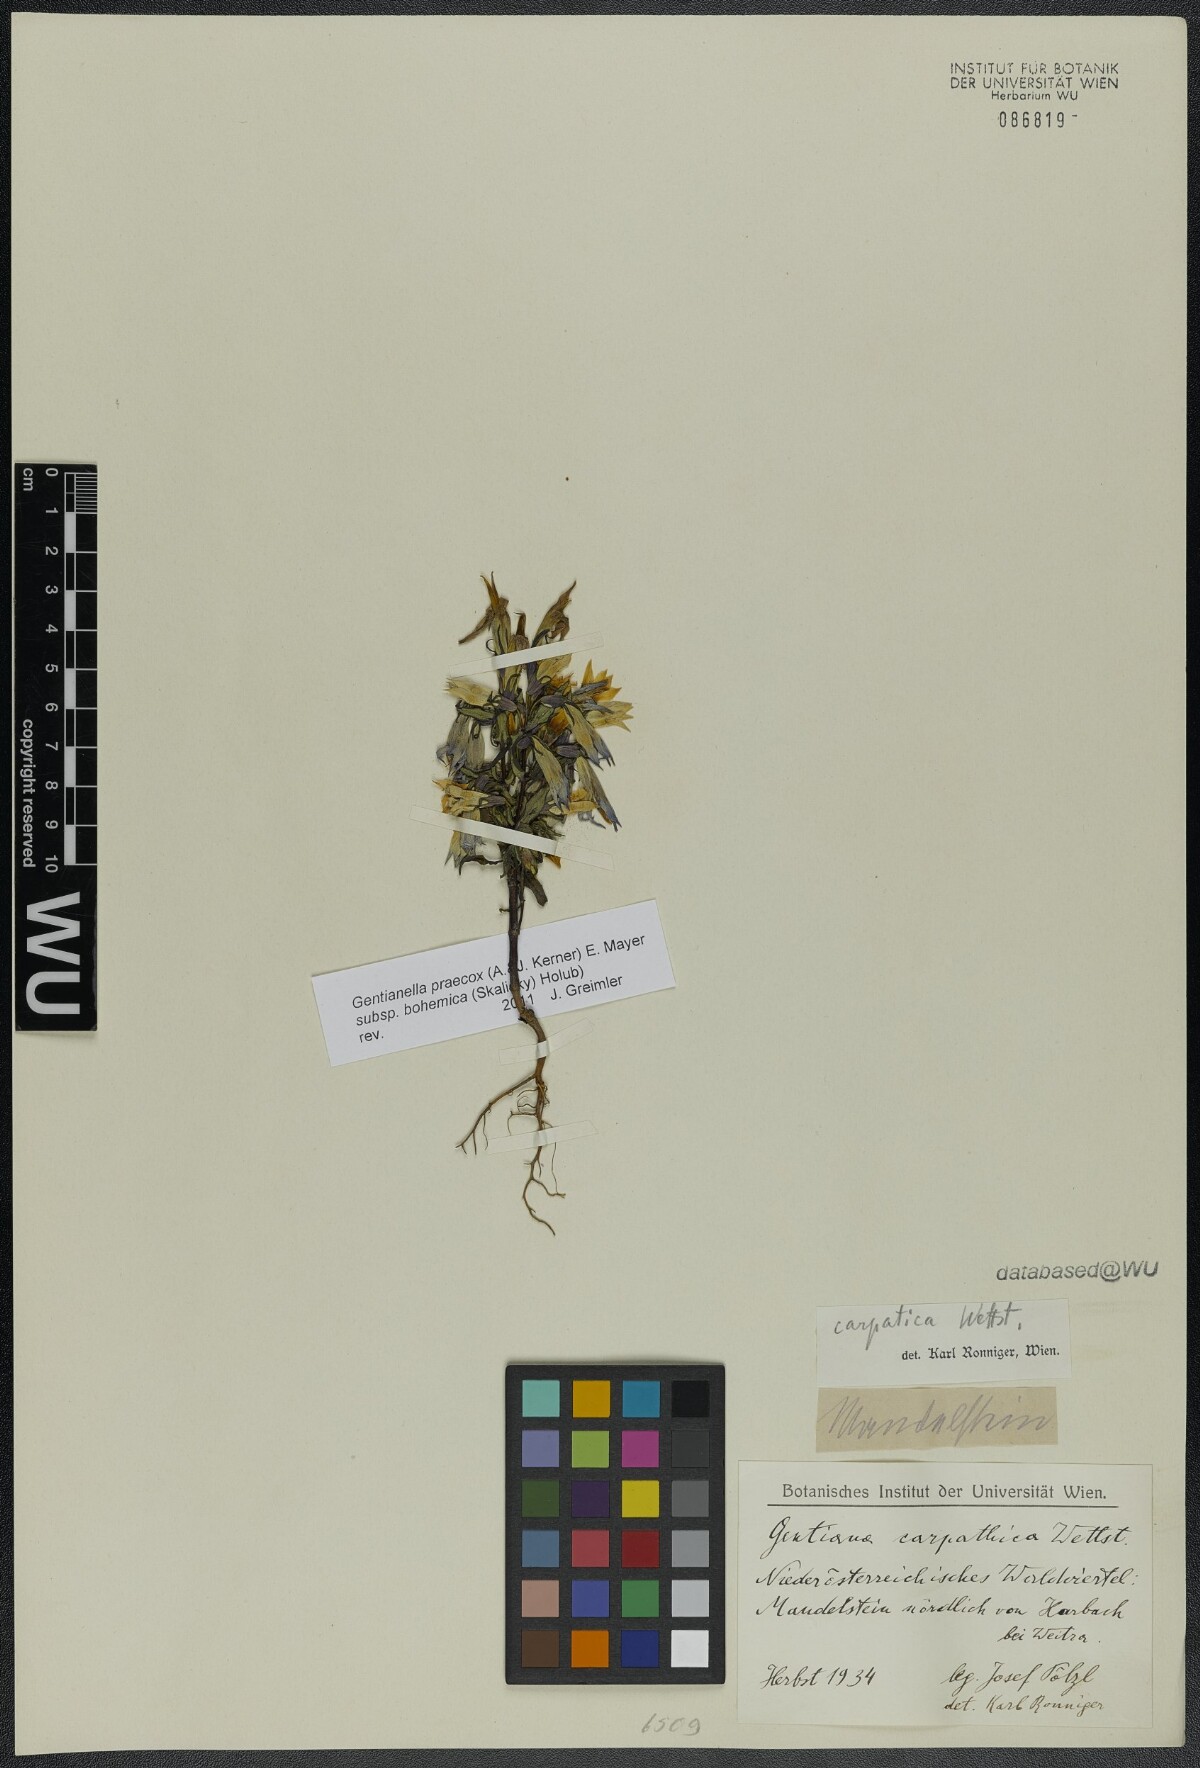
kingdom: Plantae
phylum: Tracheophyta
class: Magnoliopsida
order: Gentianales
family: Gentianaceae
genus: Gentianella
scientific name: Gentianella praecox
